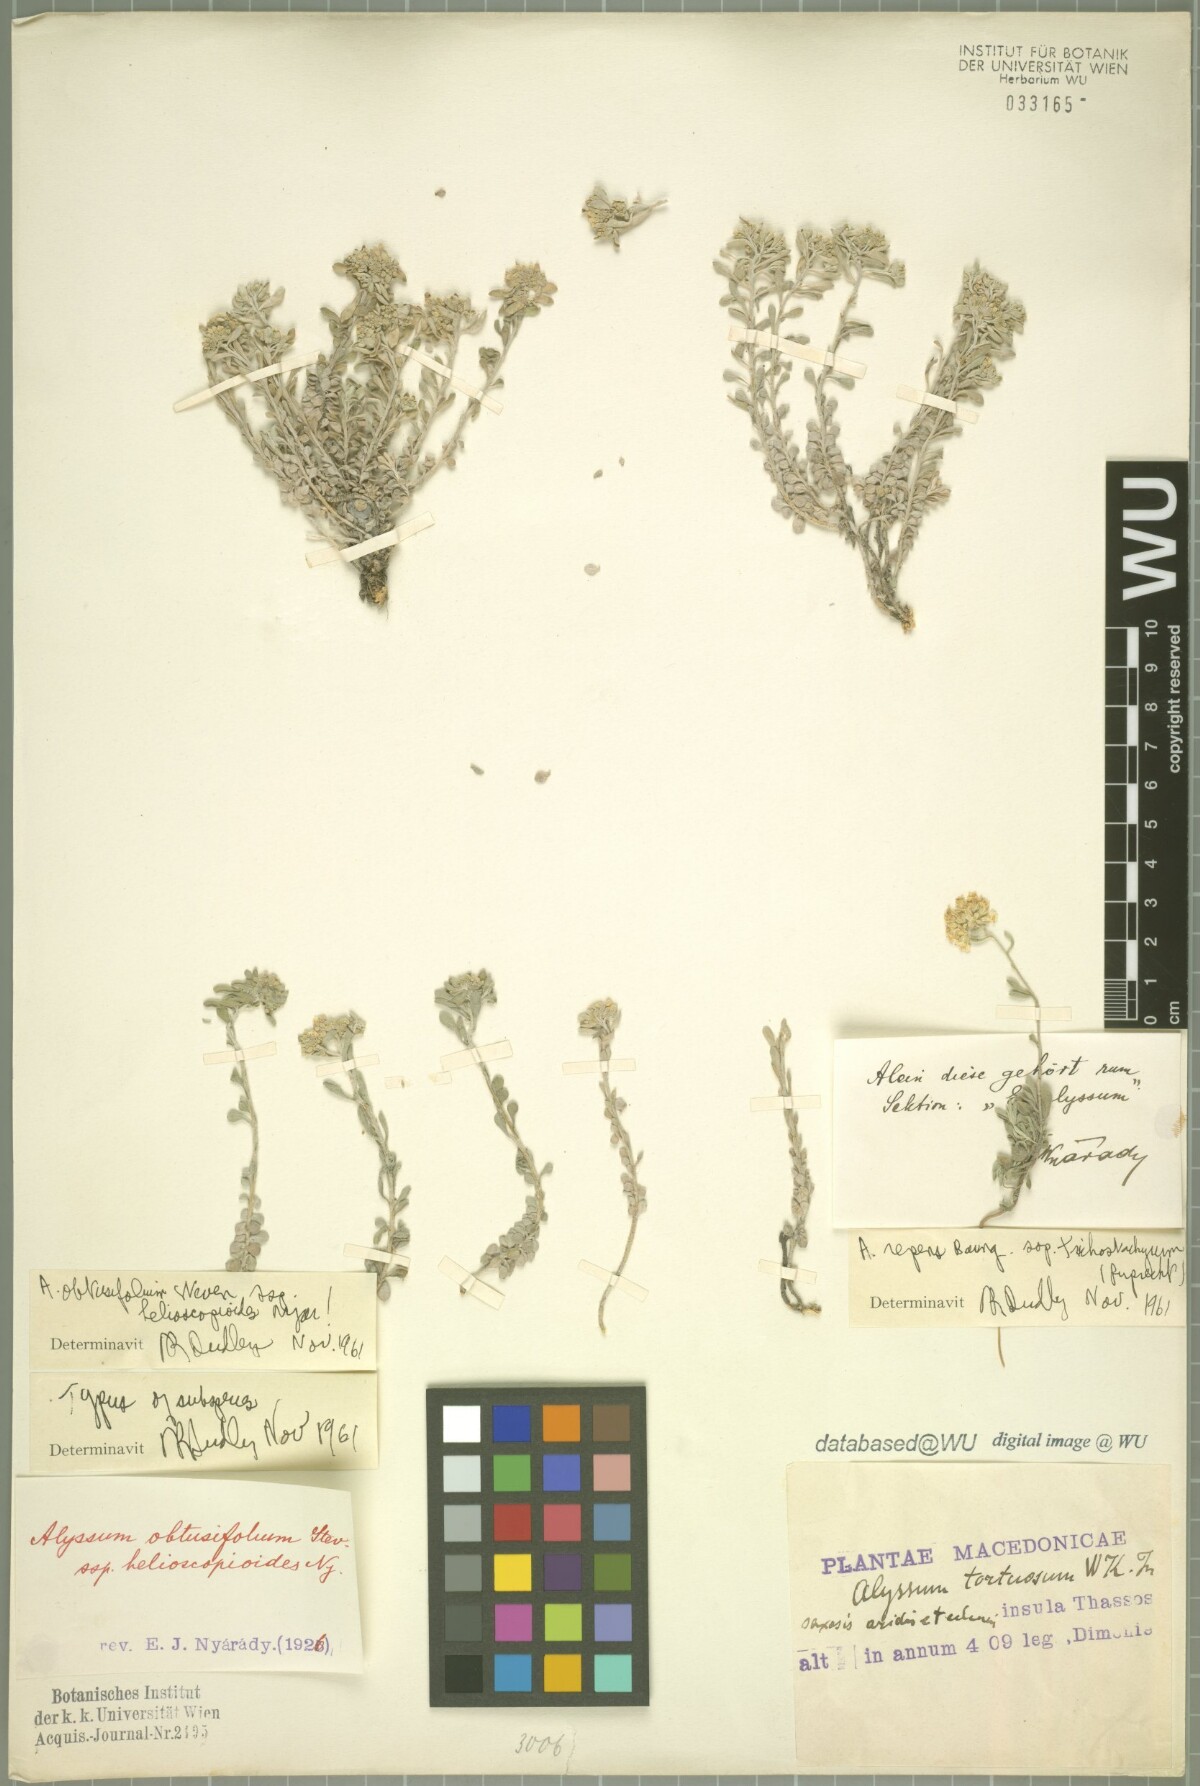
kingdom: Plantae
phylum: Tracheophyta
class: Magnoliopsida
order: Brassicales
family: Brassicaceae
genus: Odontarrhena
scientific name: Odontarrhena obtusifolia
